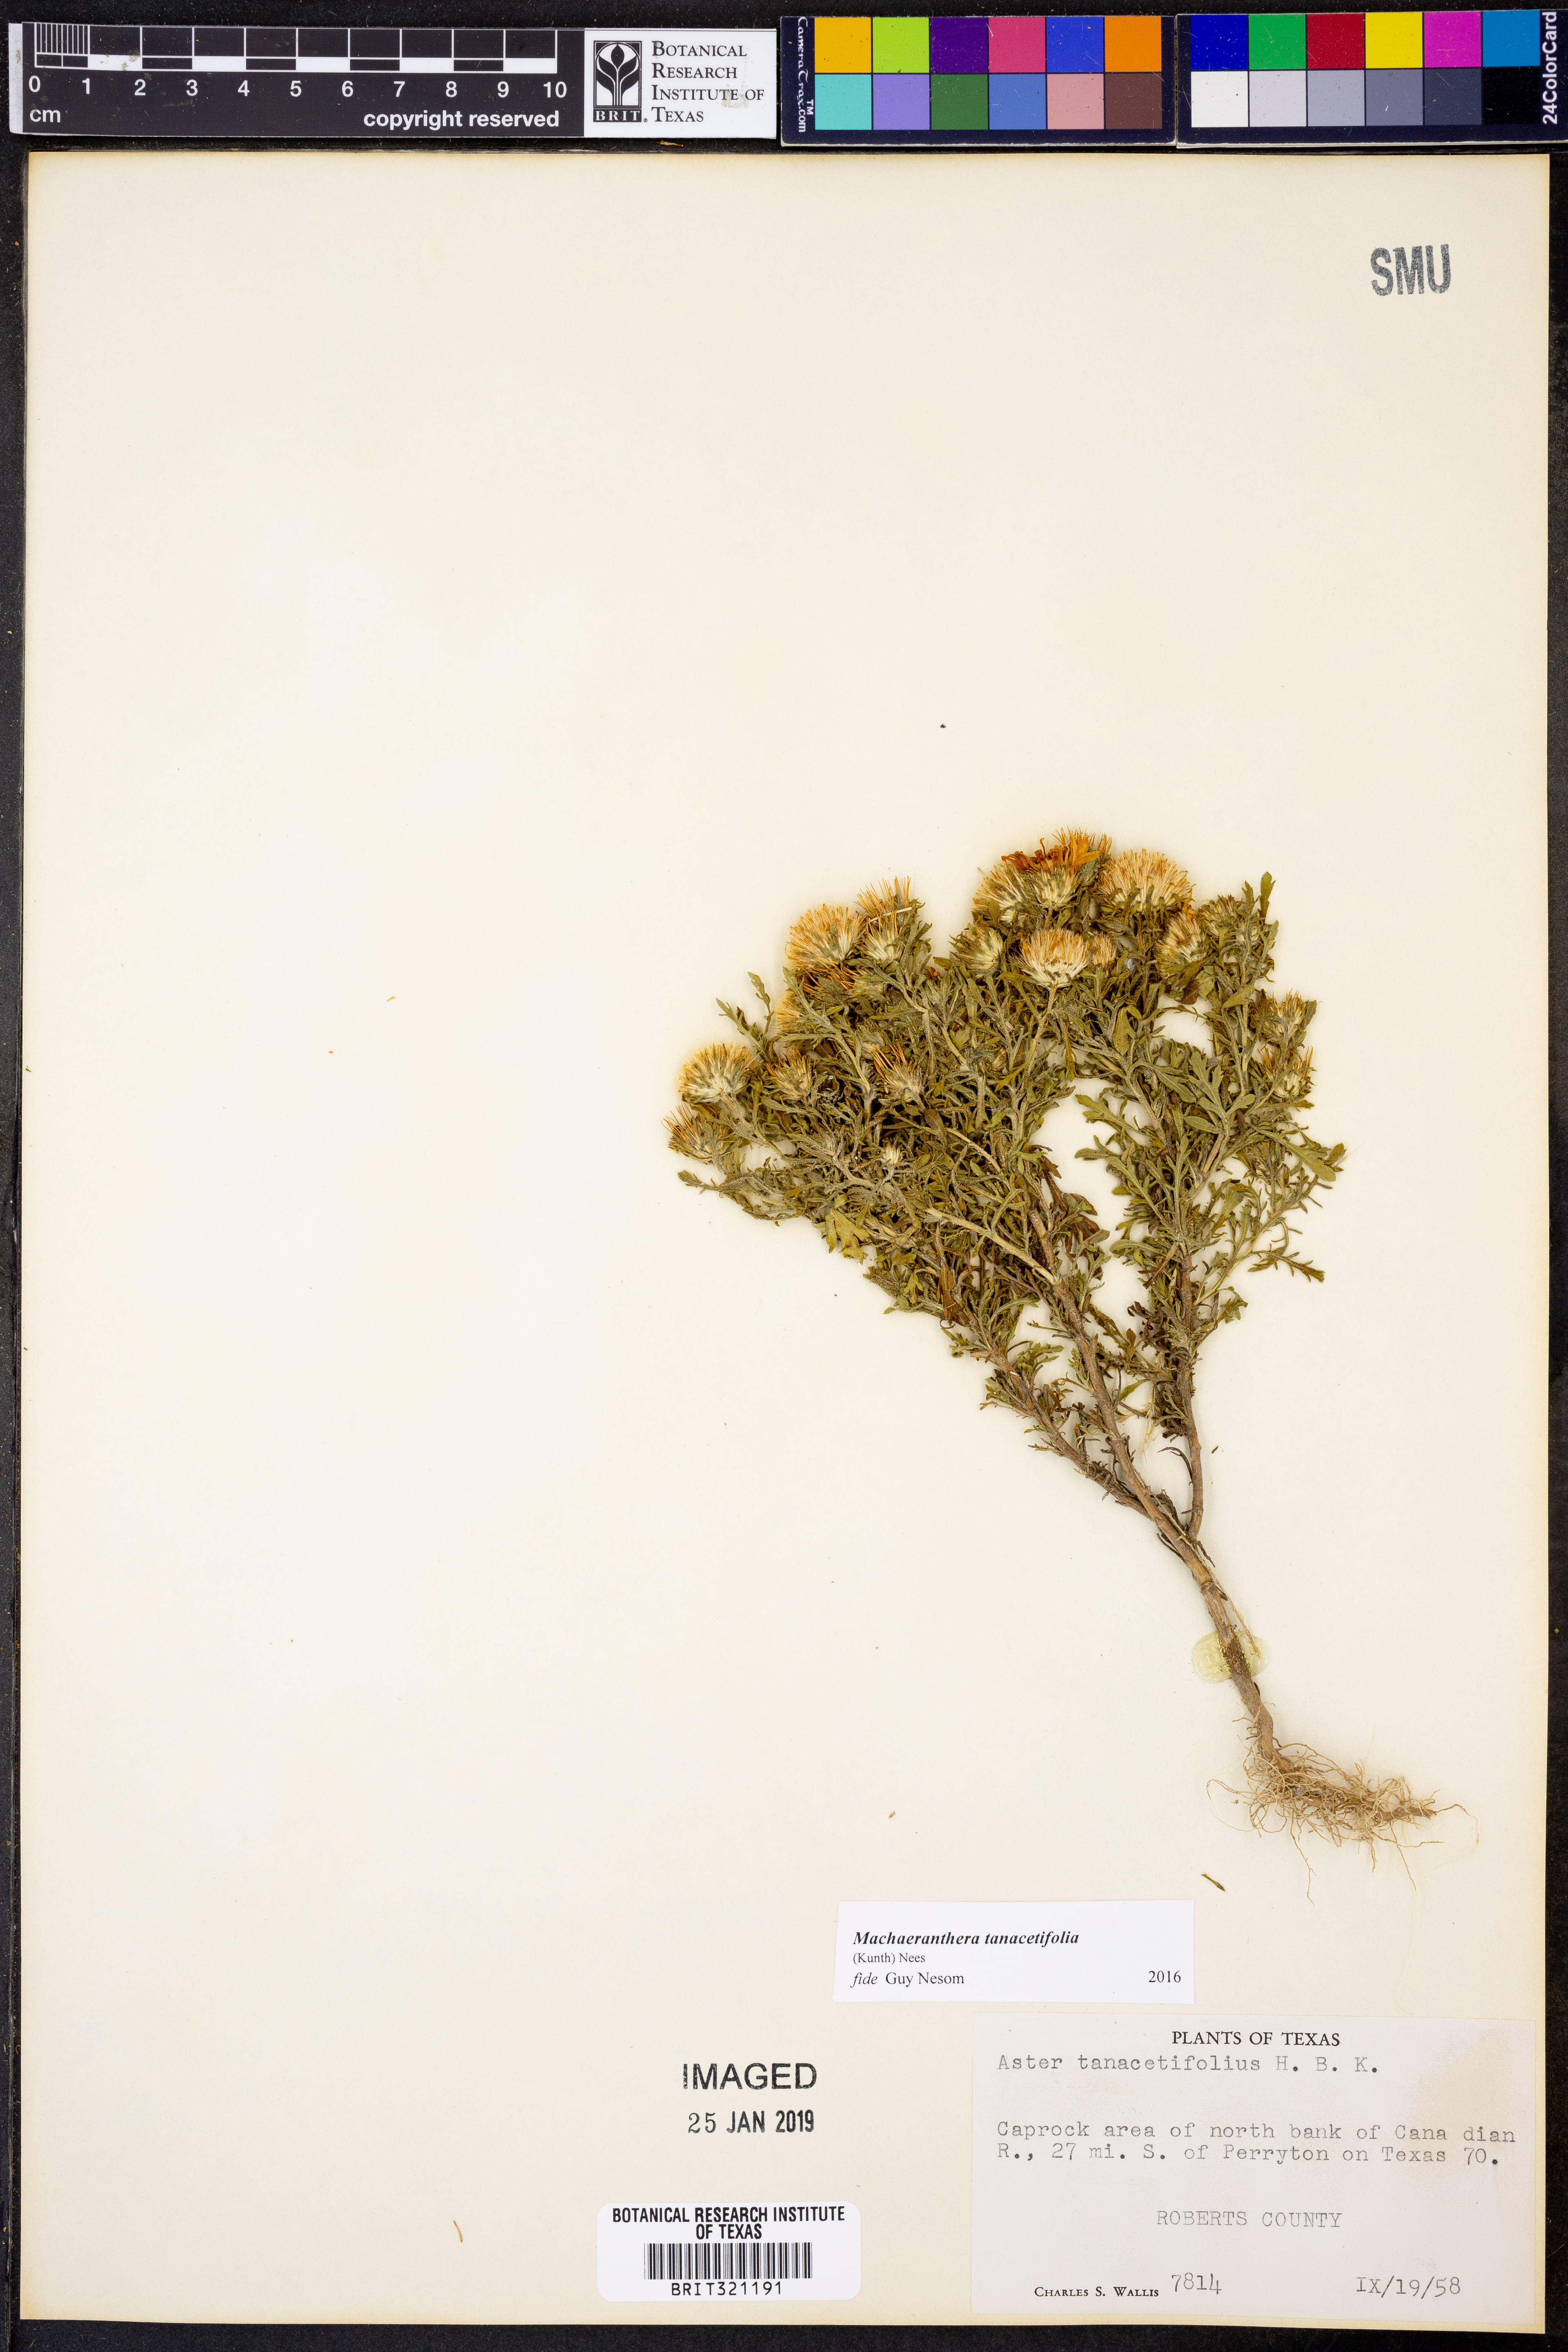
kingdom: Plantae
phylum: Tracheophyta
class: Magnoliopsida
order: Asterales
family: Asteraceae
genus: Machaeranthera
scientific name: Machaeranthera tanacetifolia
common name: Tansy-aster
